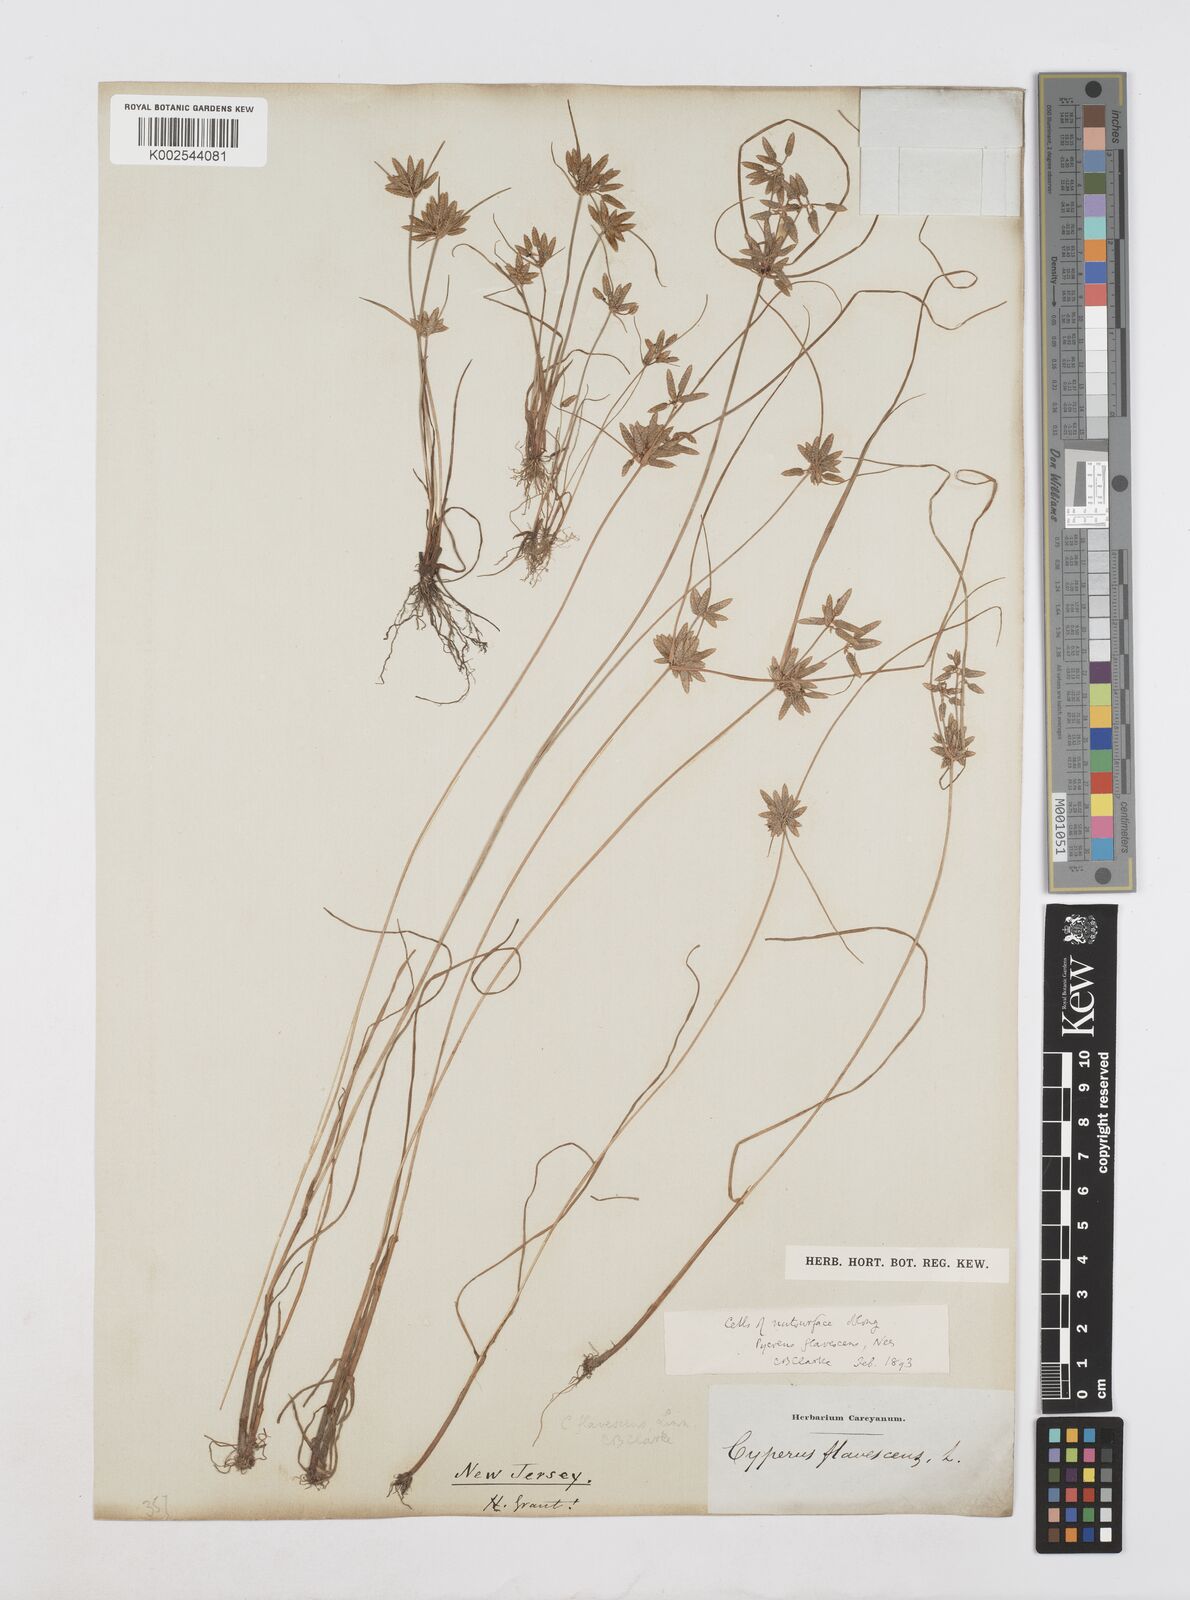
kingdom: Plantae
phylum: Tracheophyta
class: Liliopsida
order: Poales
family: Cyperaceae
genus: Cyperus
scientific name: Cyperus flavescens
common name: Yellow galingale
